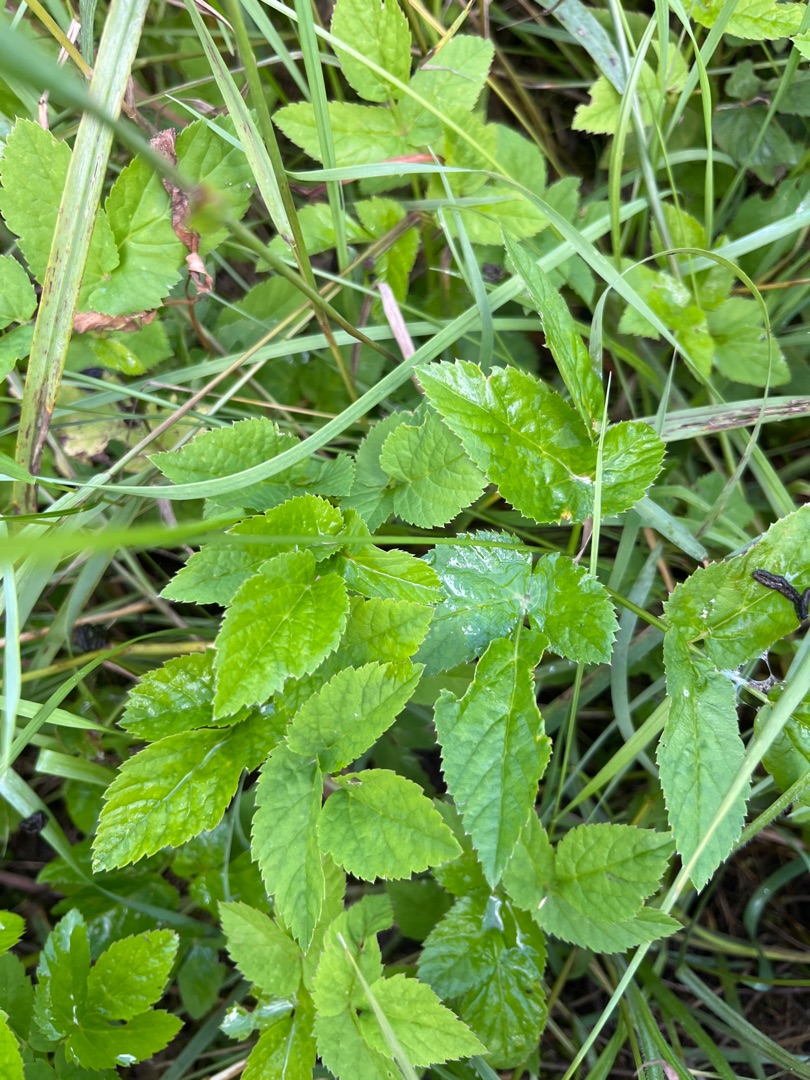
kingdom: Plantae
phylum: Tracheophyta
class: Magnoliopsida
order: Apiales
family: Apiaceae
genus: Aegopodium
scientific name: Aegopodium podagraria
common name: Skvalderkål
